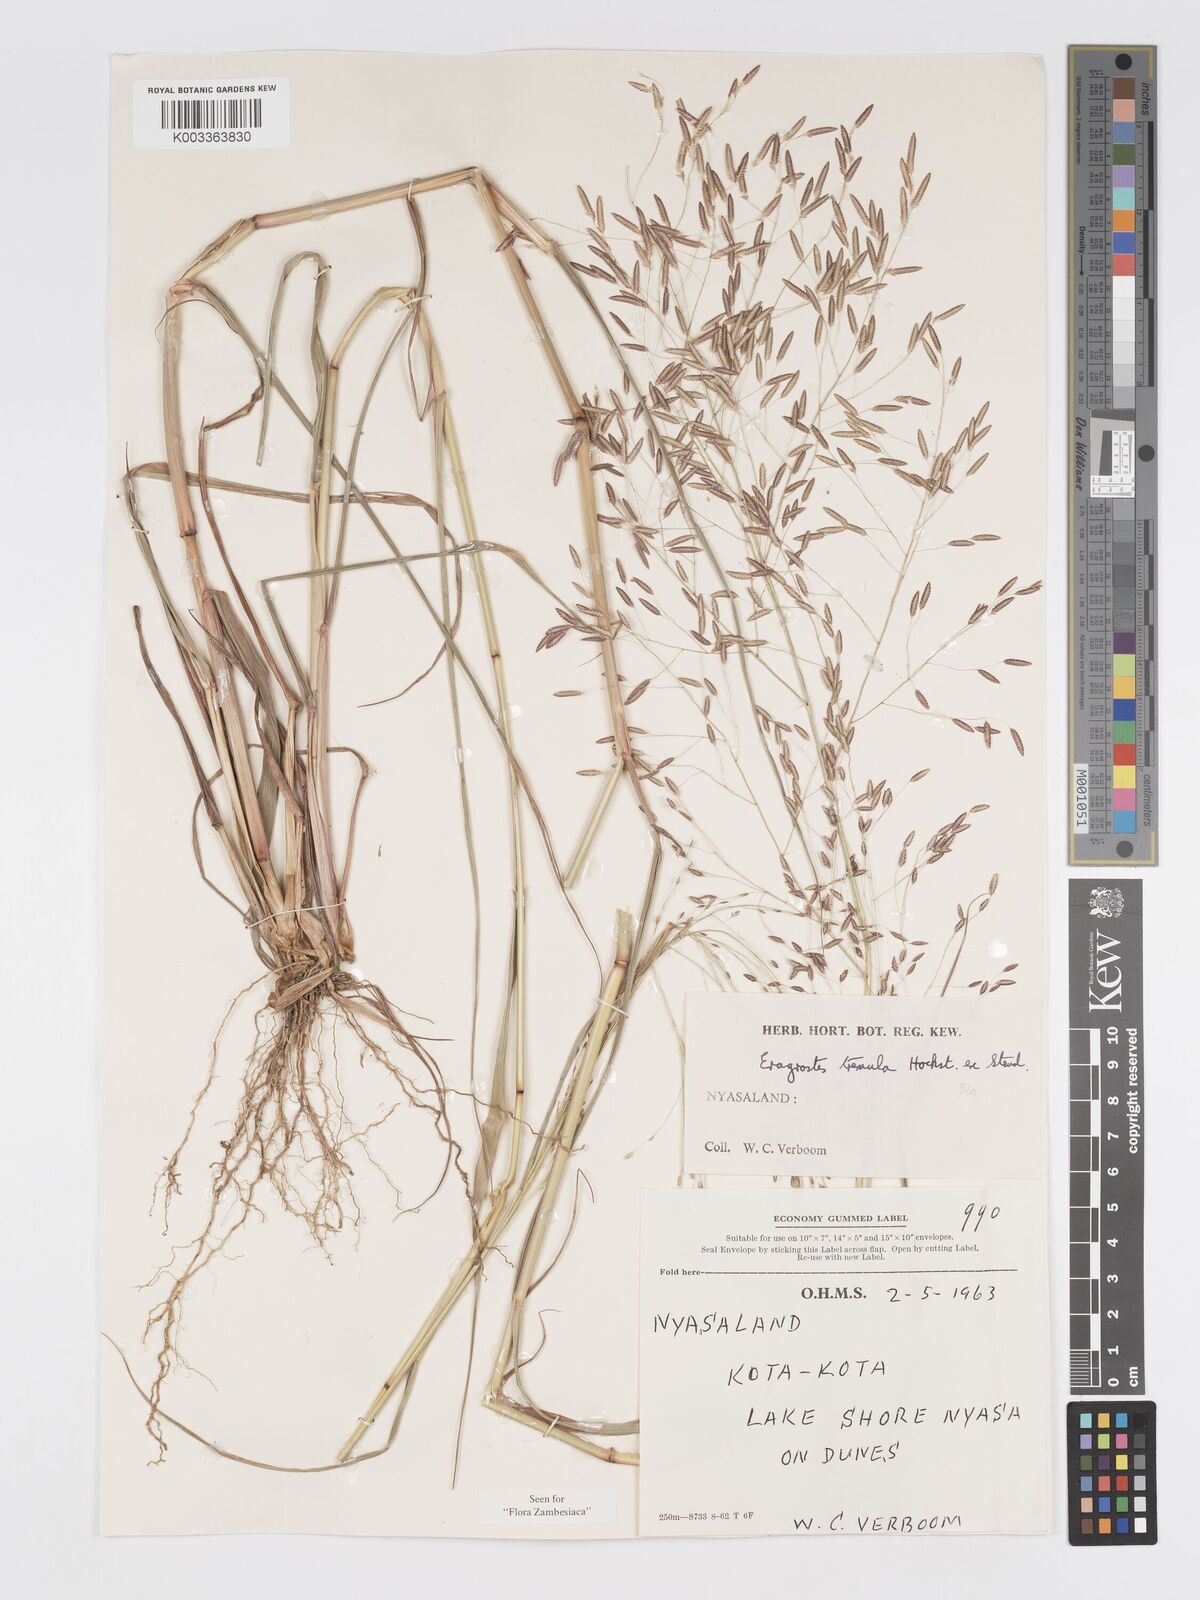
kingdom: Plantae
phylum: Tracheophyta
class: Liliopsida
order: Poales
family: Poaceae
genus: Eragrostis
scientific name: Eragrostis tremula
